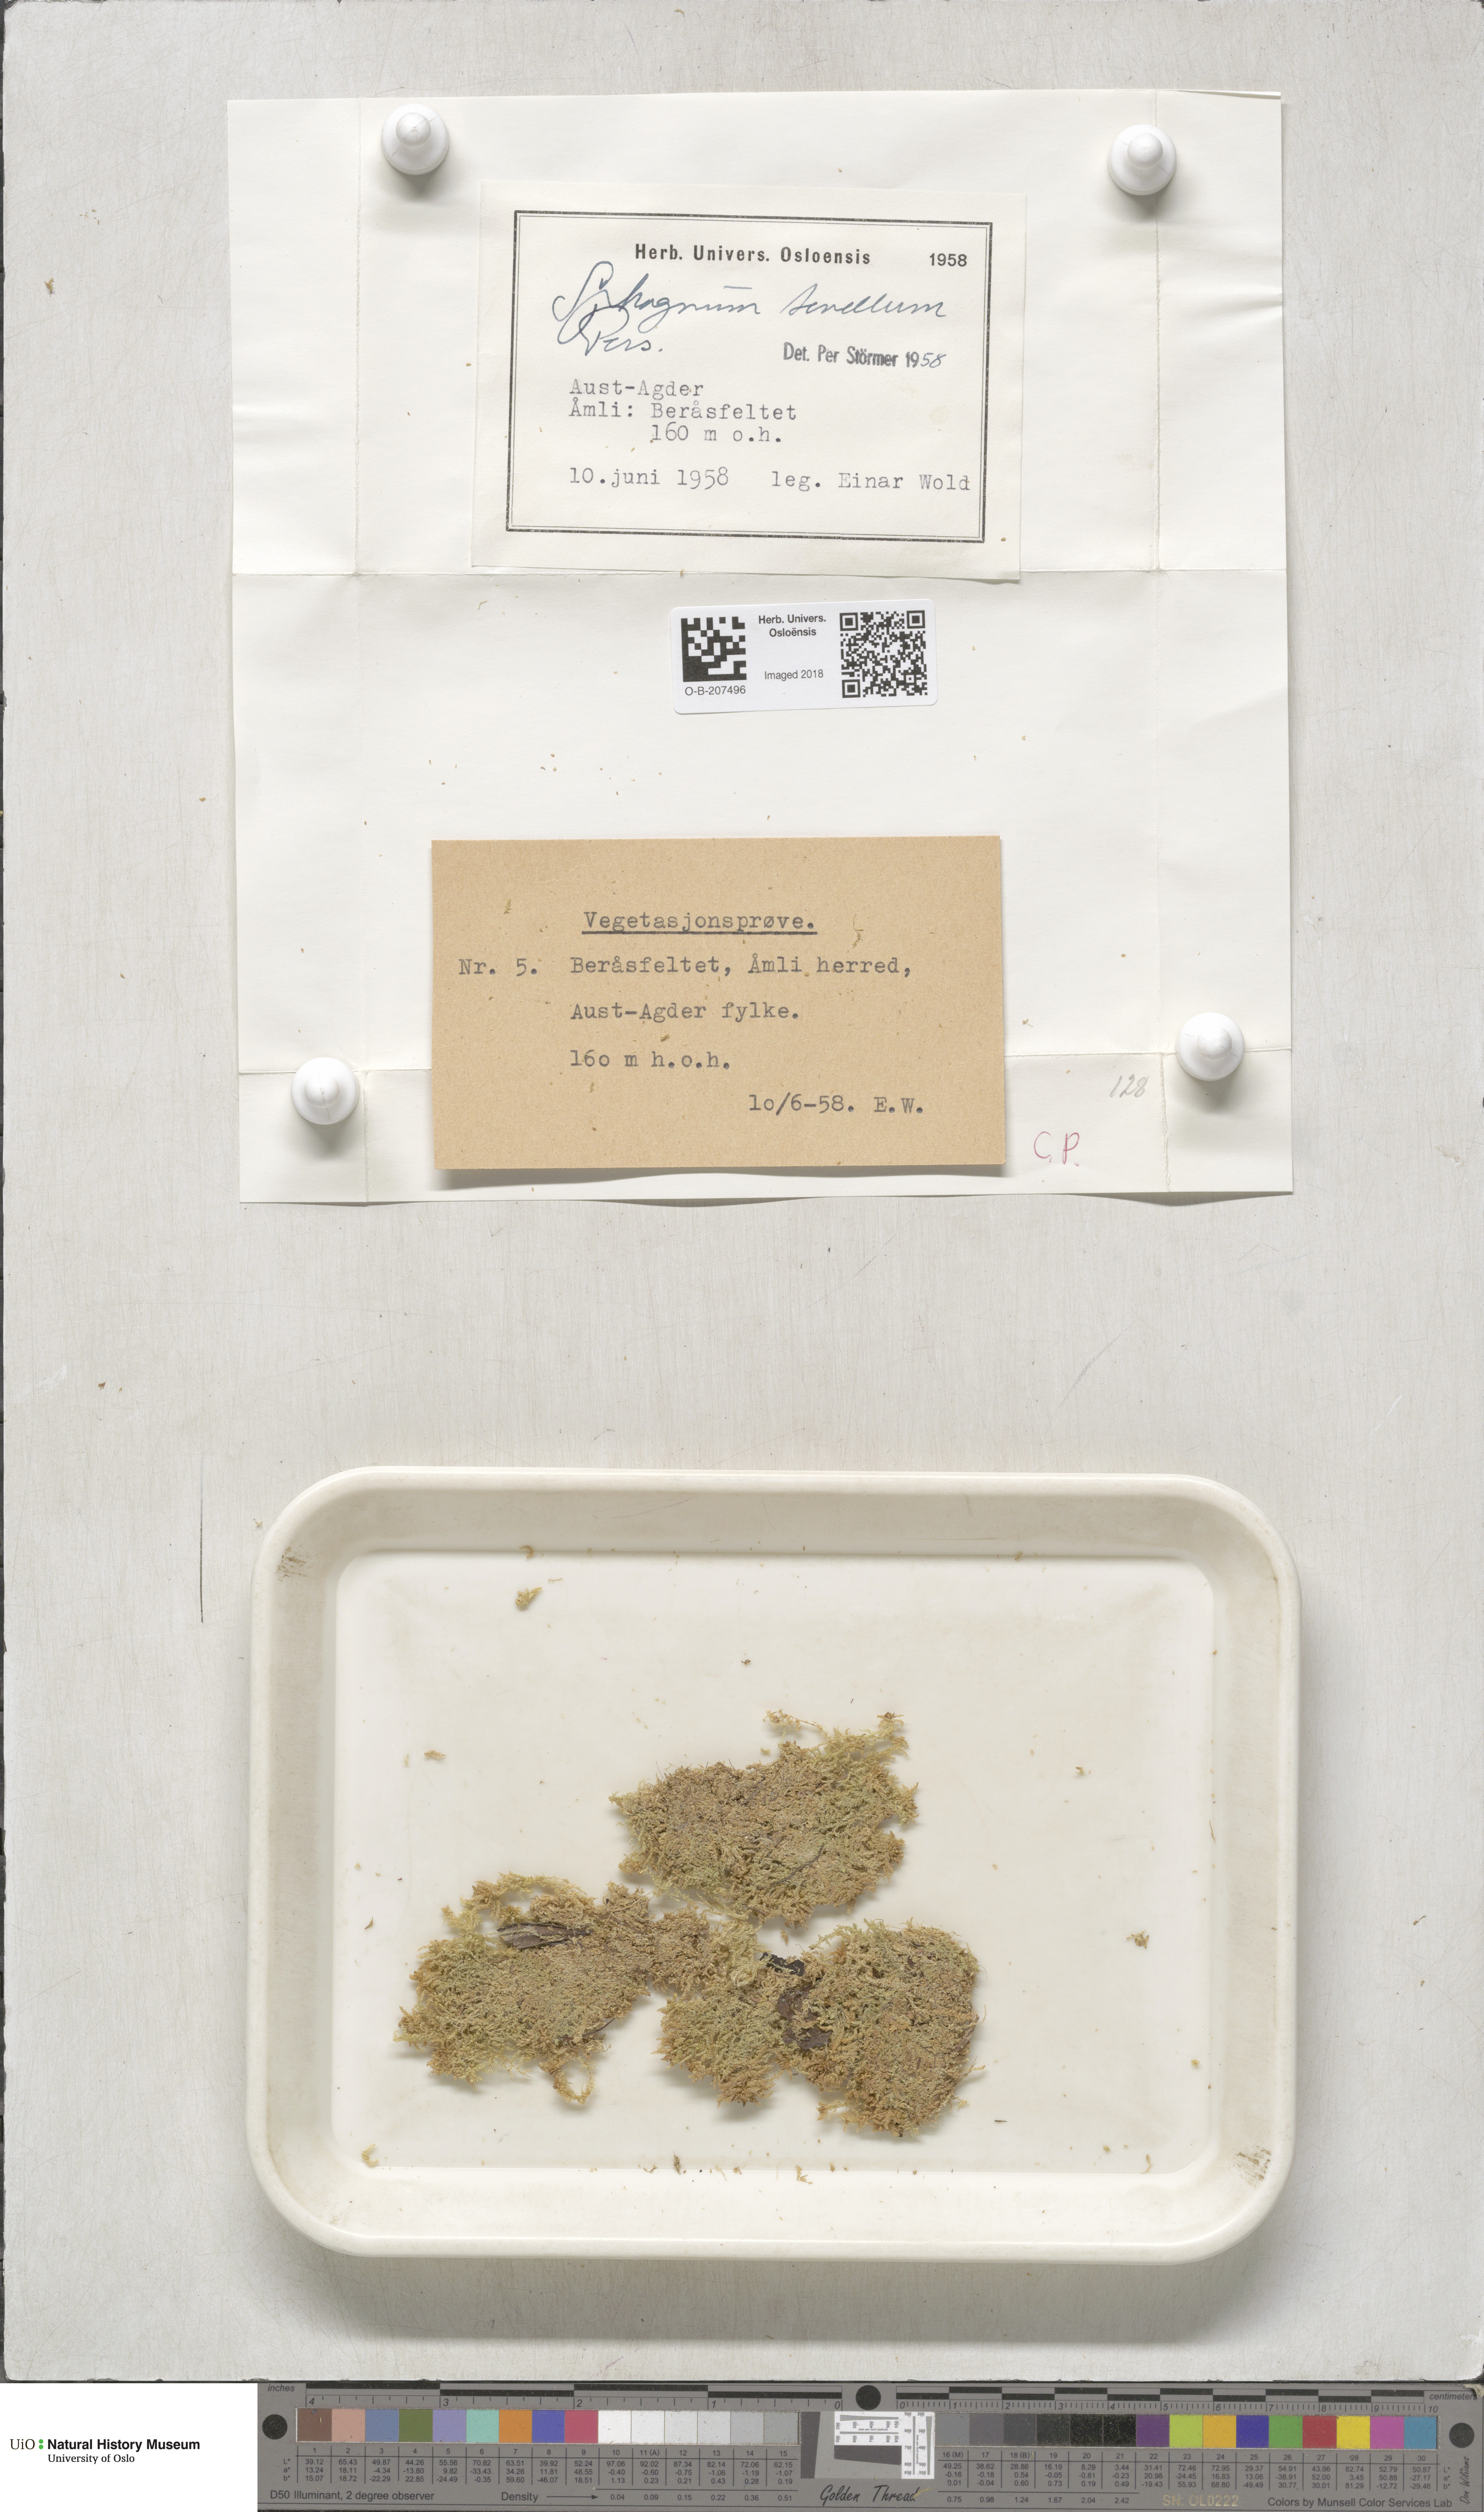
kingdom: Plantae
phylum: Bryophyta
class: Sphagnopsida
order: Sphagnales
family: Sphagnaceae
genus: Sphagnum
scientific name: Sphagnum tenellum
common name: Soft bog-moss
